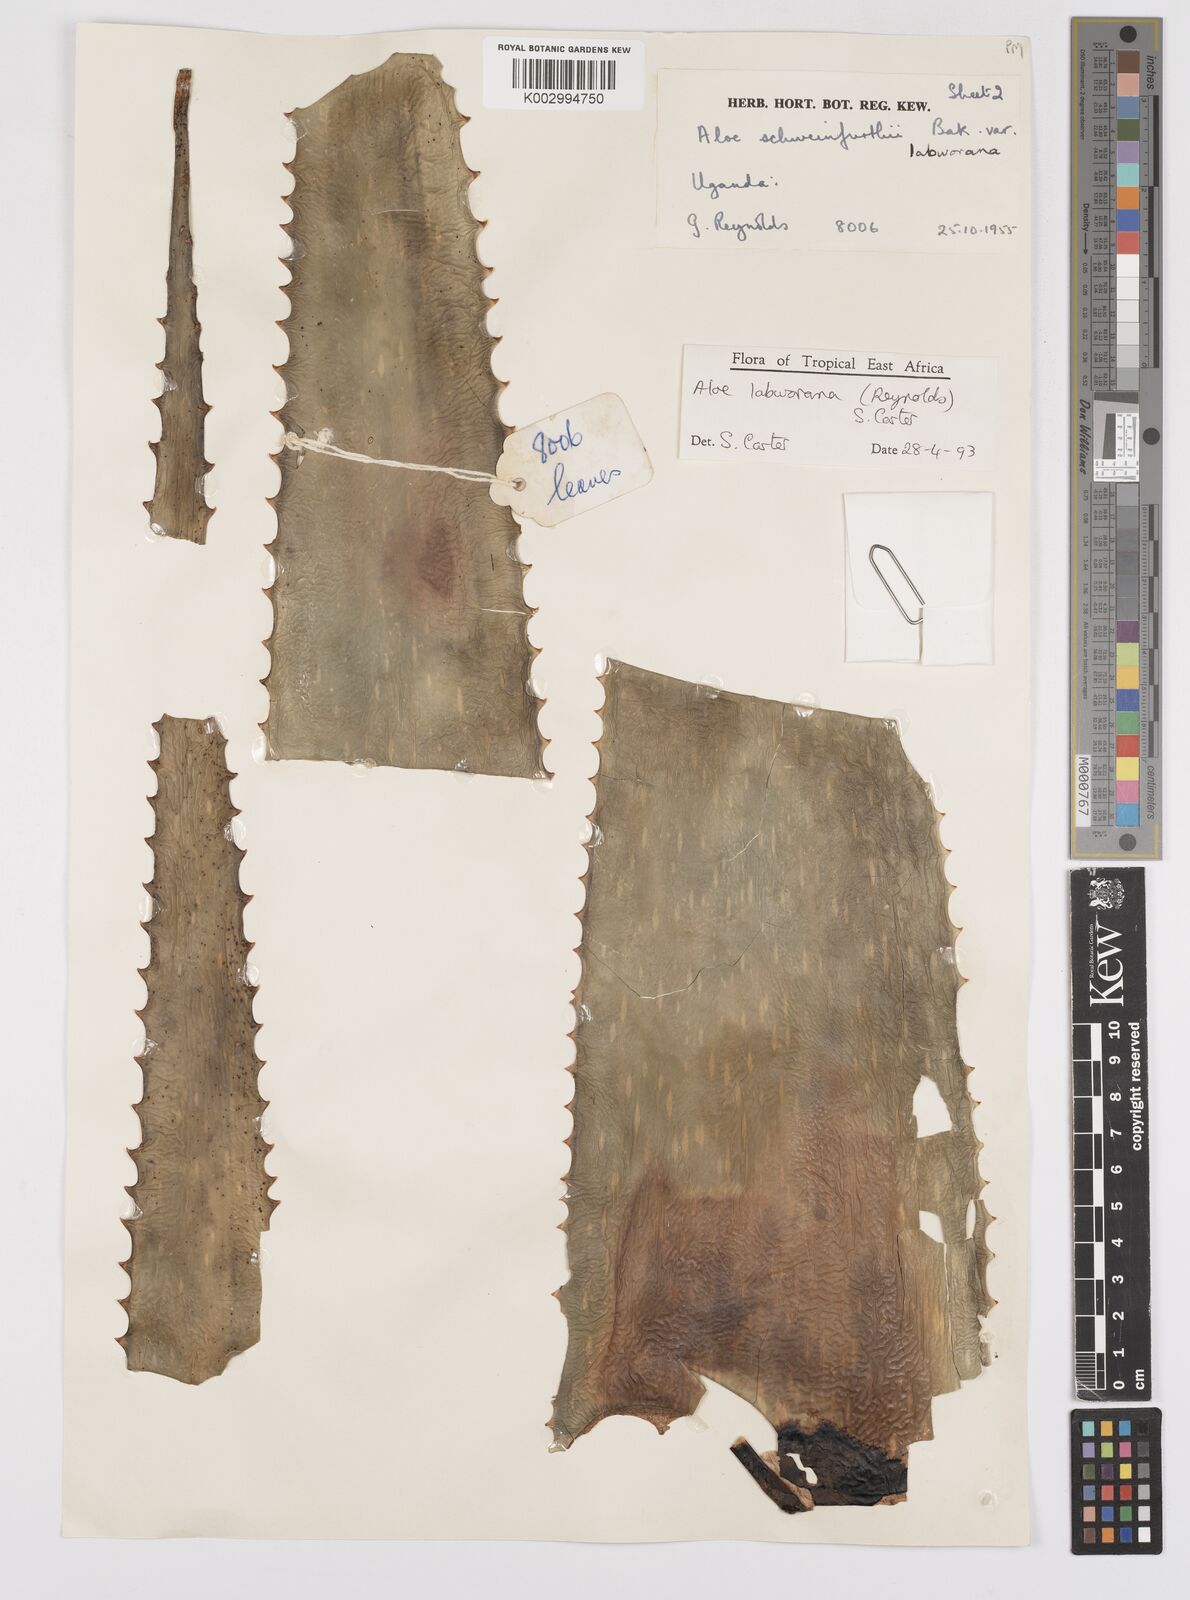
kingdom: Plantae
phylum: Tracheophyta
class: Liliopsida
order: Asparagales
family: Asphodelaceae
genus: Aloe
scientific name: Aloe labworana
